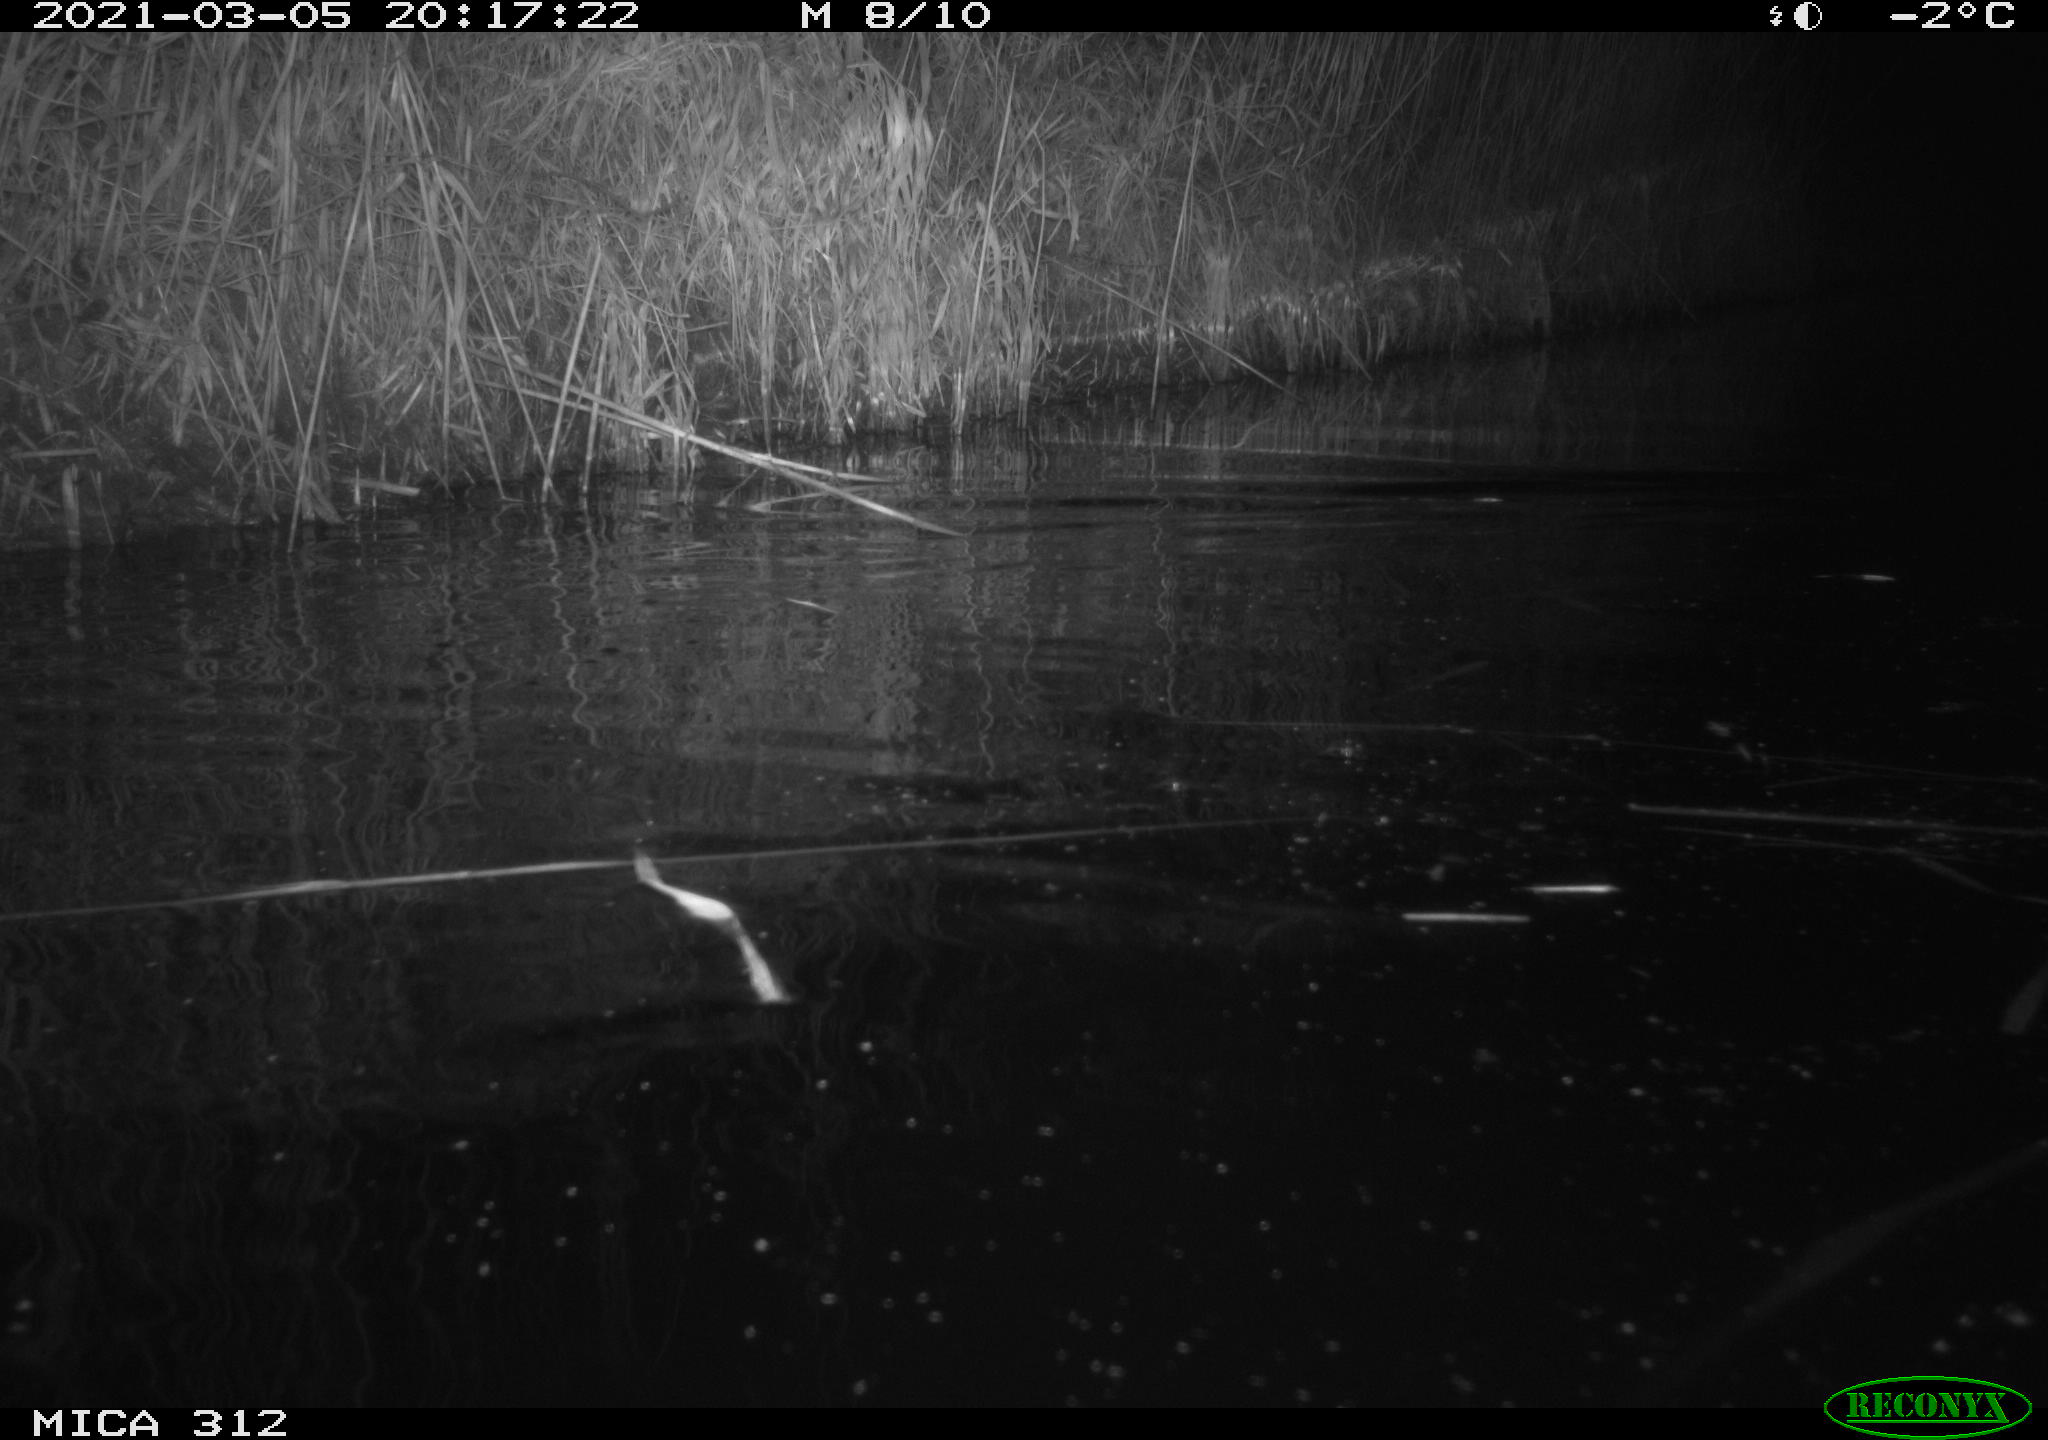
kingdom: Animalia
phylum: Chordata
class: Mammalia
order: Rodentia
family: Cricetidae
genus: Ondatra
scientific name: Ondatra zibethicus
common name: Muskrat
